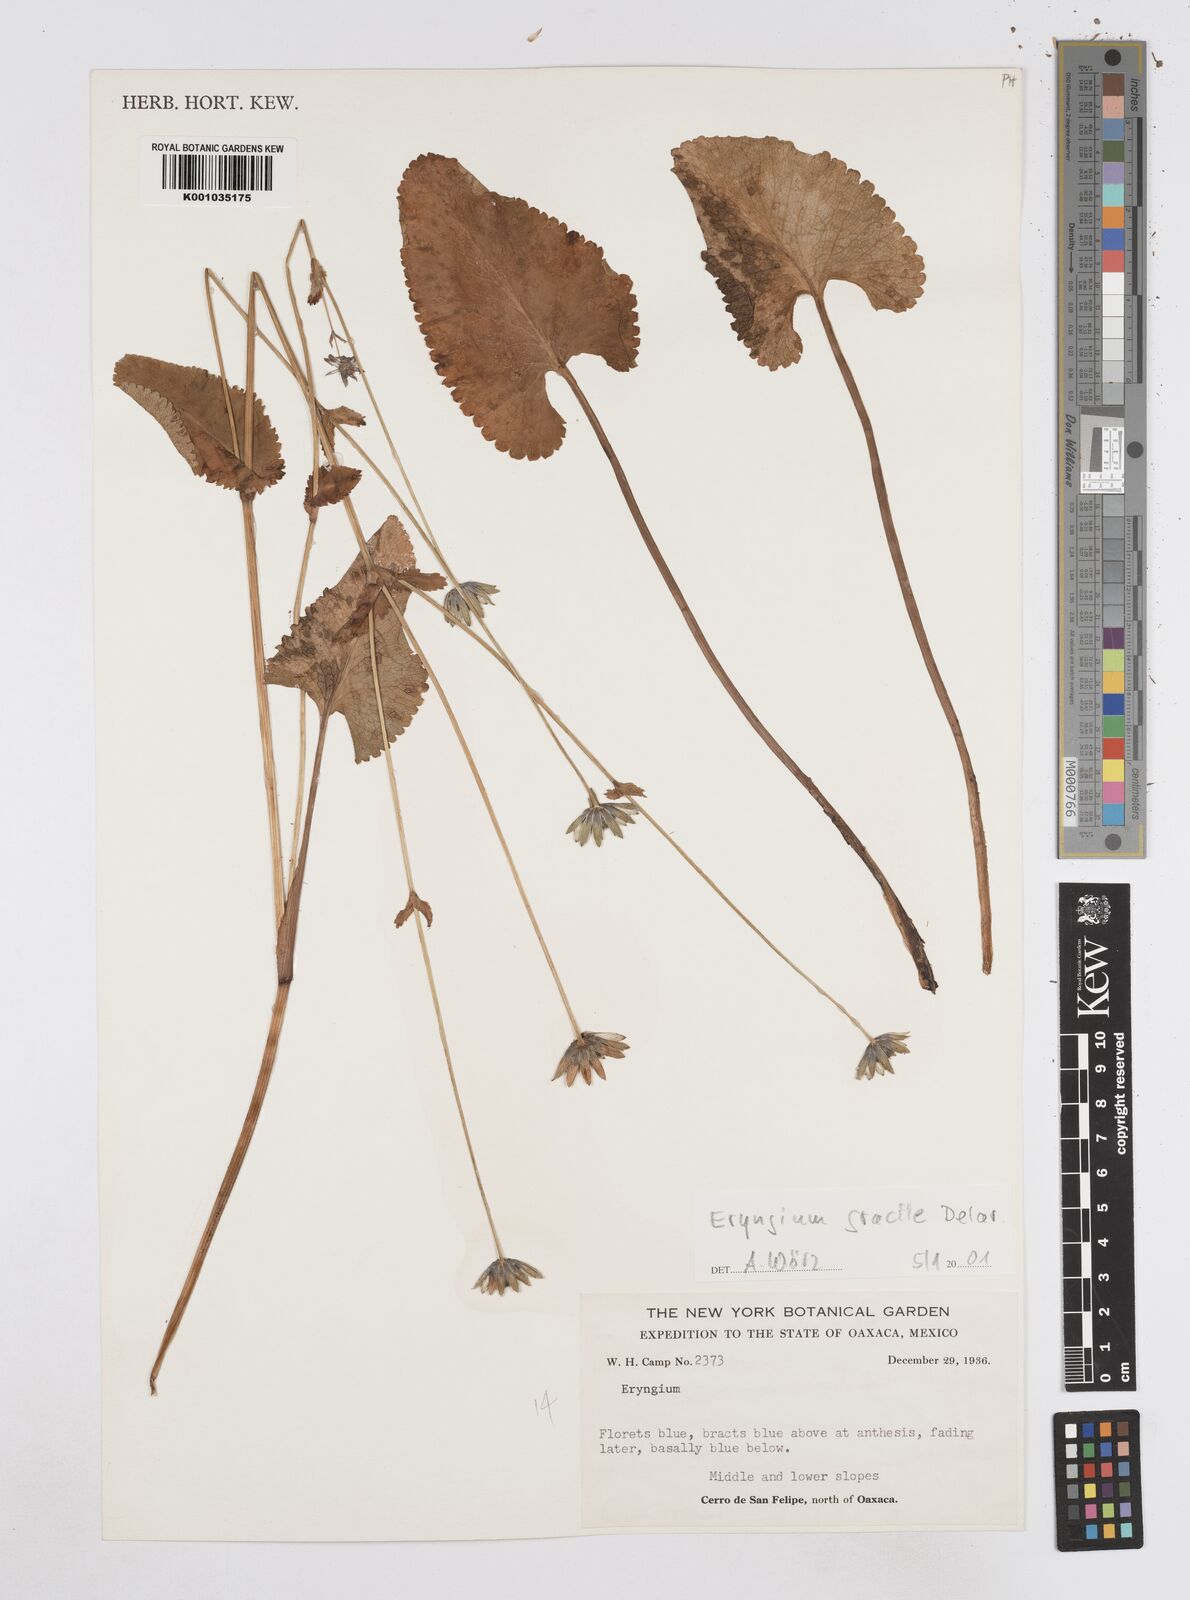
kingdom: Plantae
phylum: Tracheophyta
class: Magnoliopsida
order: Apiales
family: Apiaceae
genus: Eryngium
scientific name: Eryngium gracile
